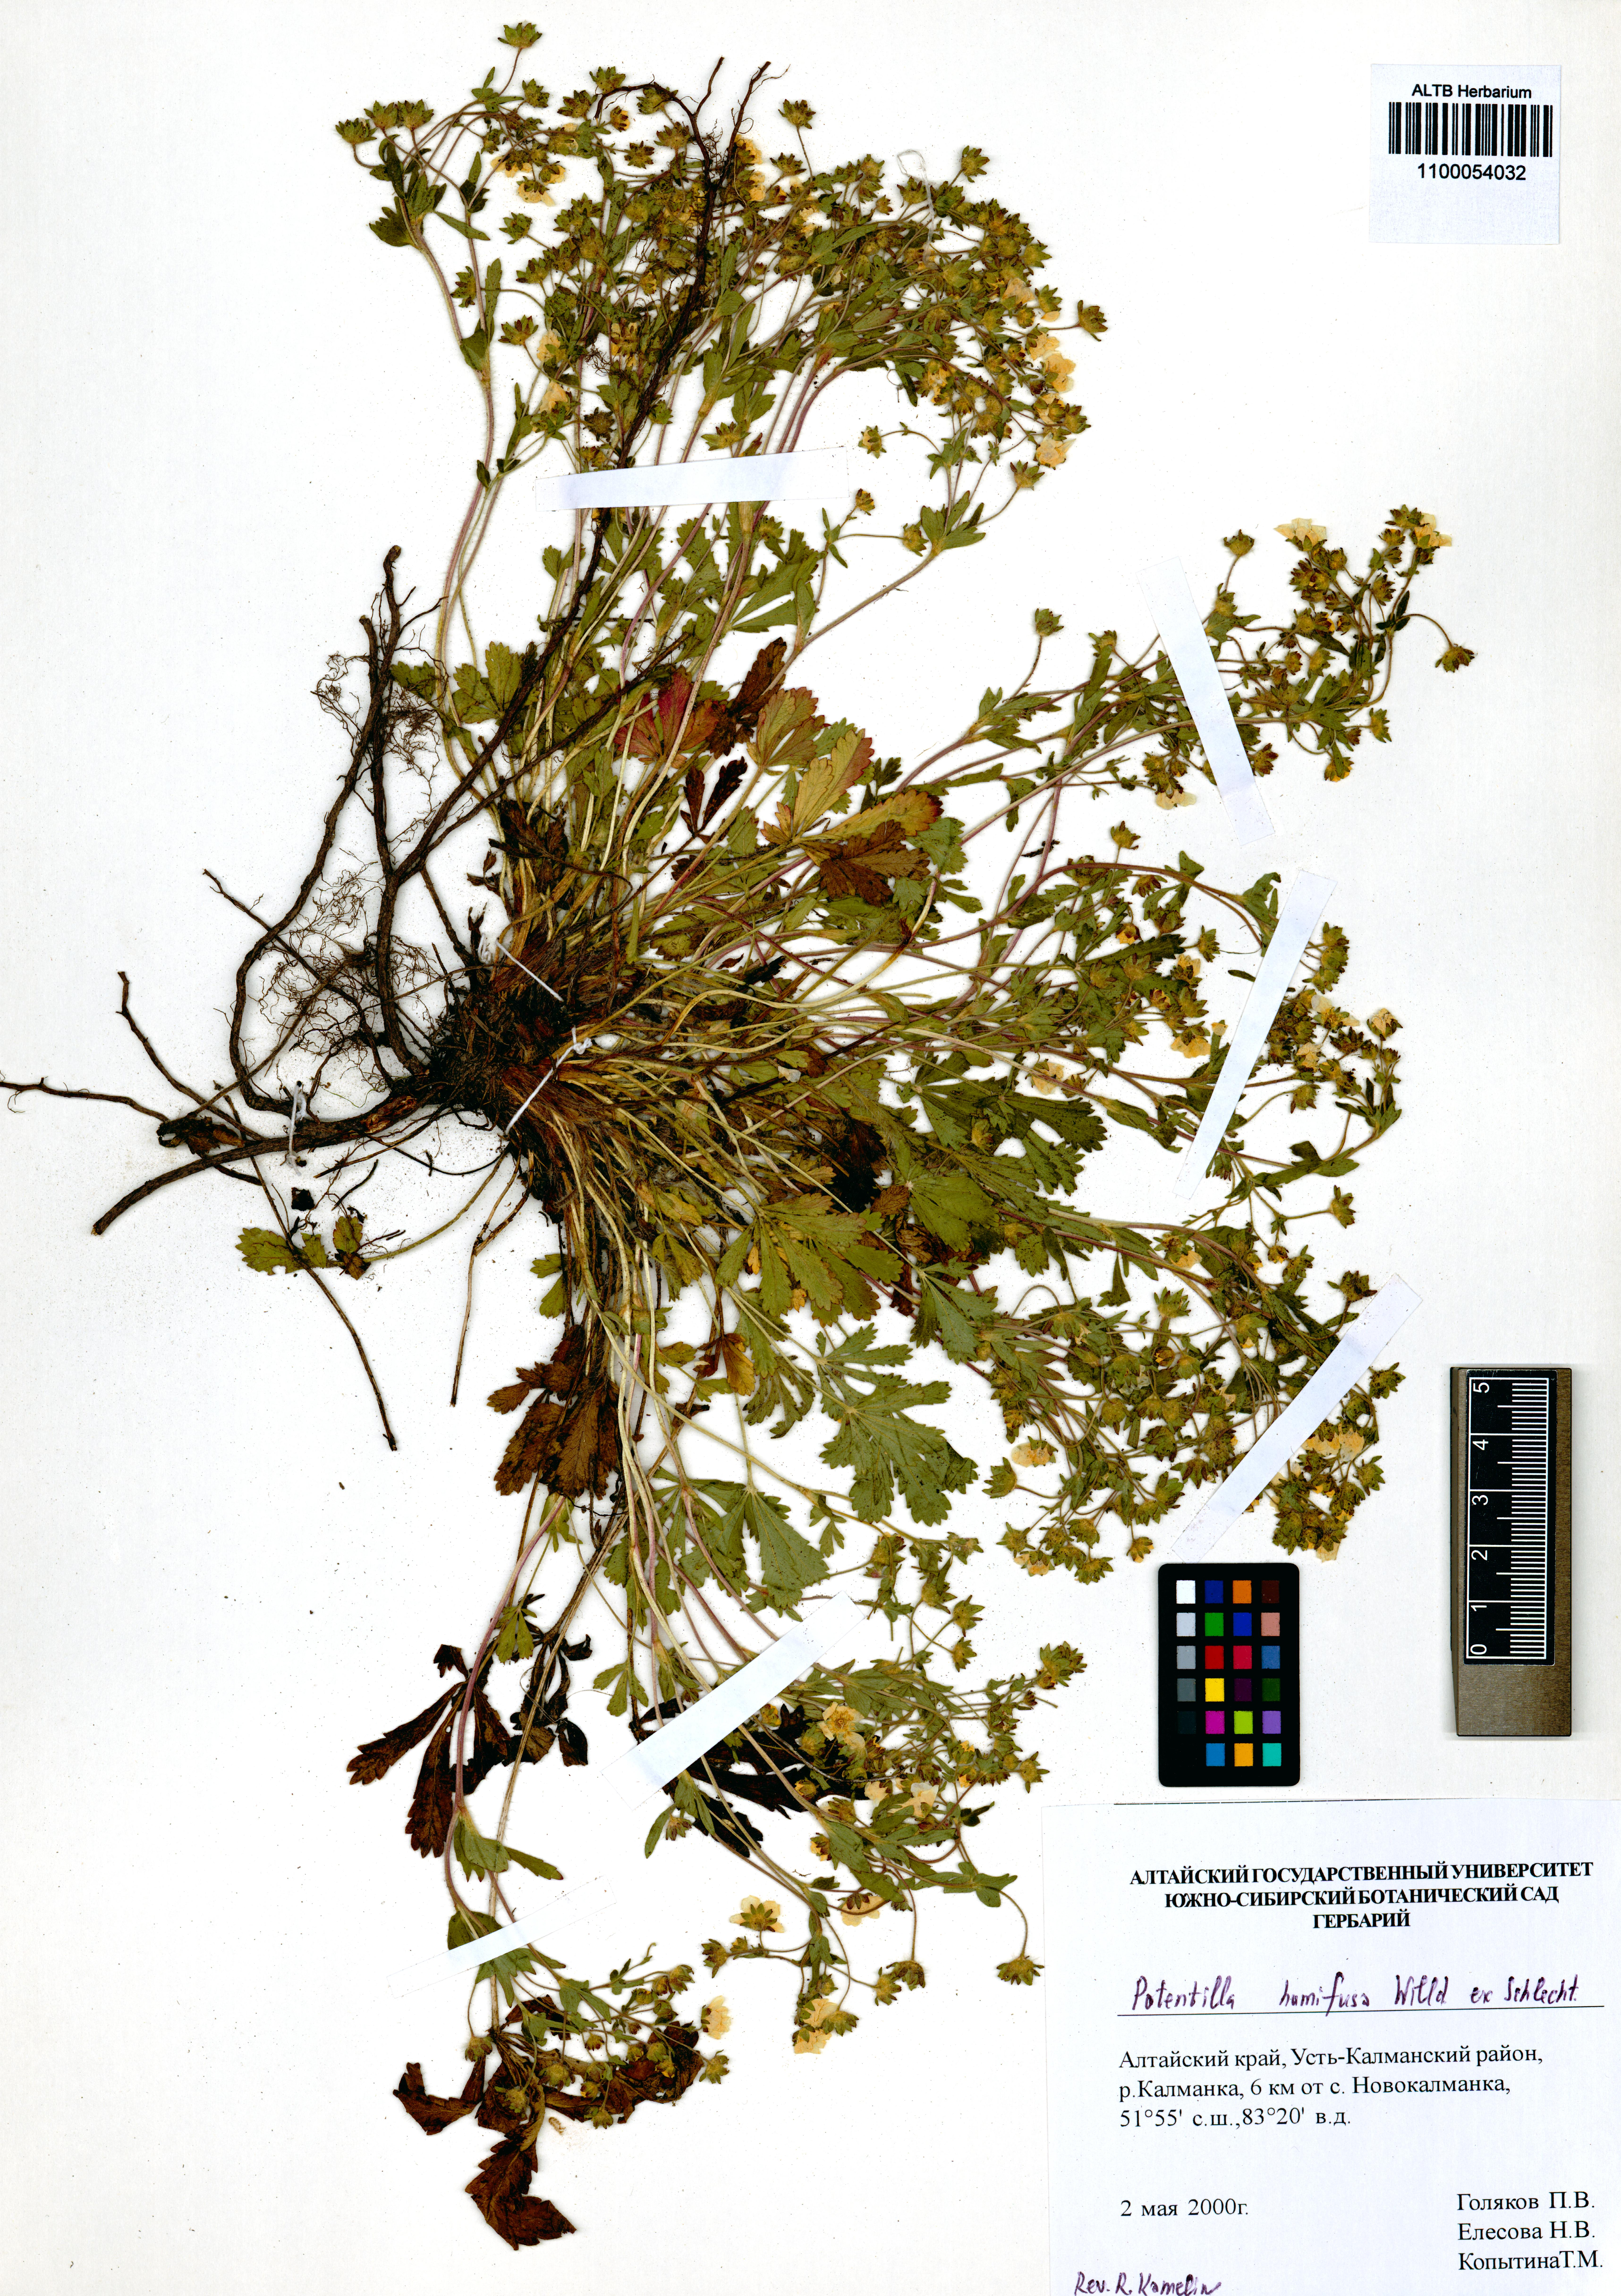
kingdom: Plantae
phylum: Tracheophyta
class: Magnoliopsida
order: Rosales
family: Rosaceae
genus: Potentilla
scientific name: Potentilla humifusa
